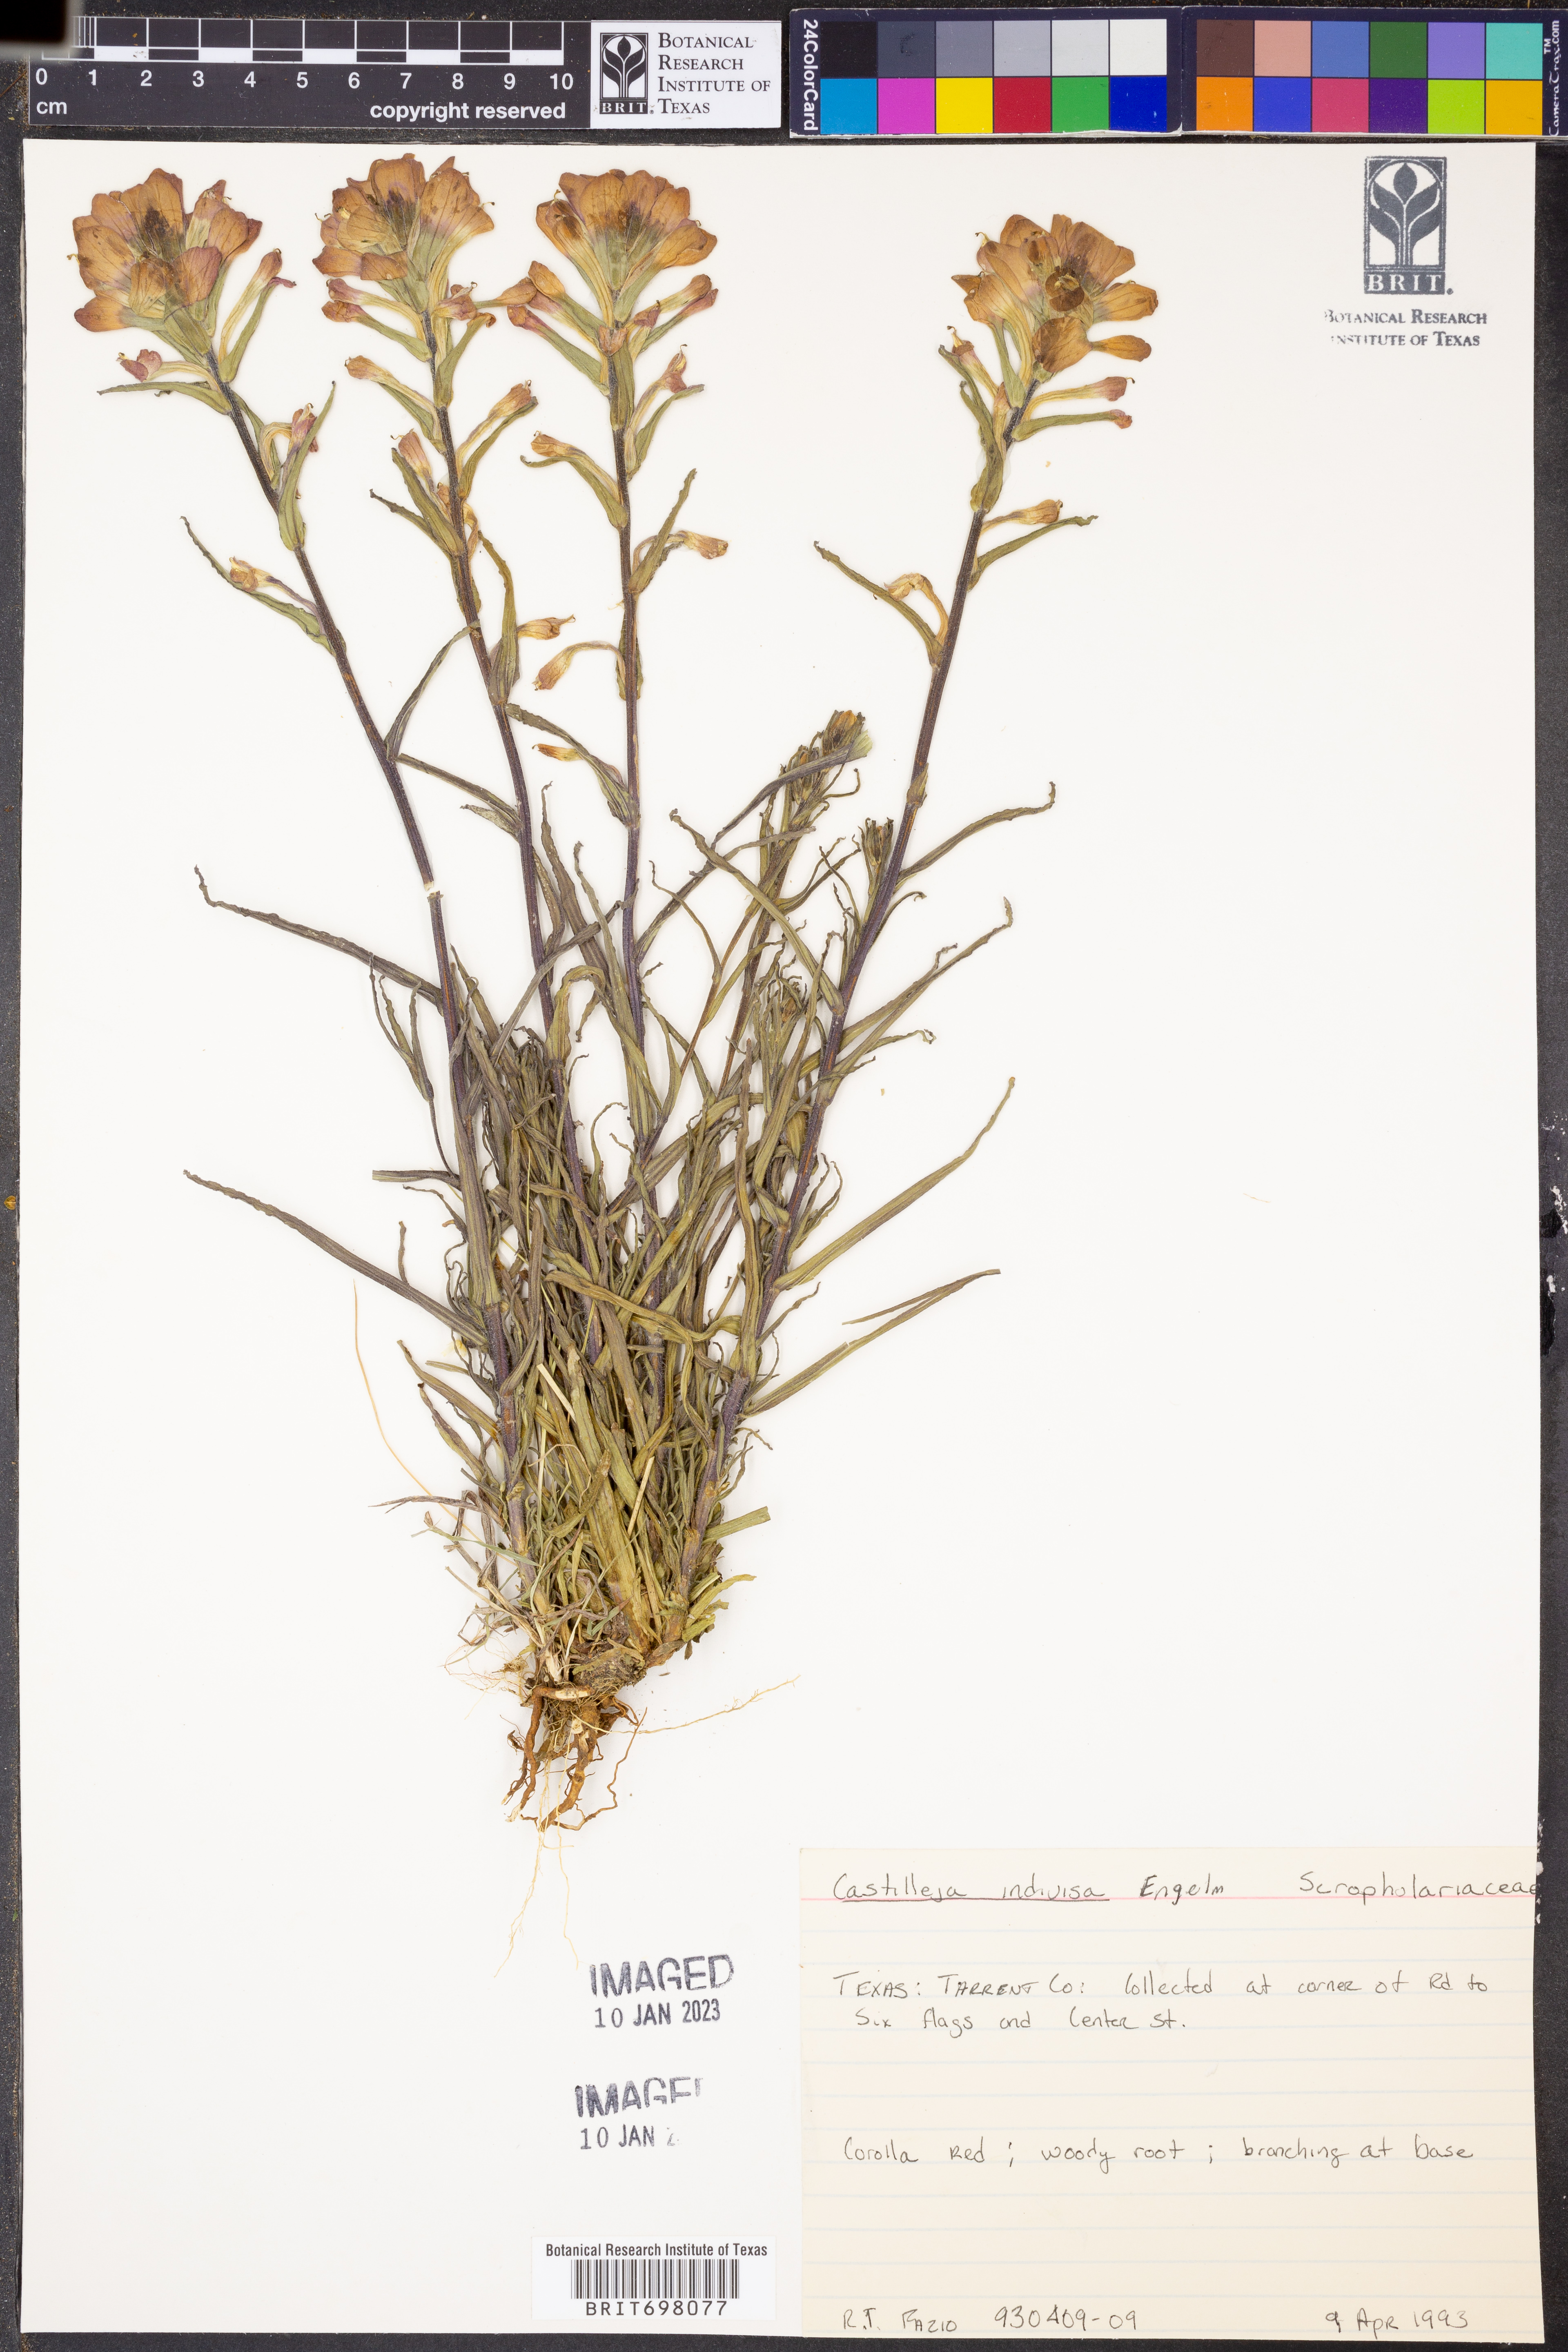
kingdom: Plantae
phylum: Tracheophyta
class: Magnoliopsida
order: Lamiales
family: Orobanchaceae
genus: Castilleja
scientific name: Castilleja indivisa
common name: Texas paintbrush
